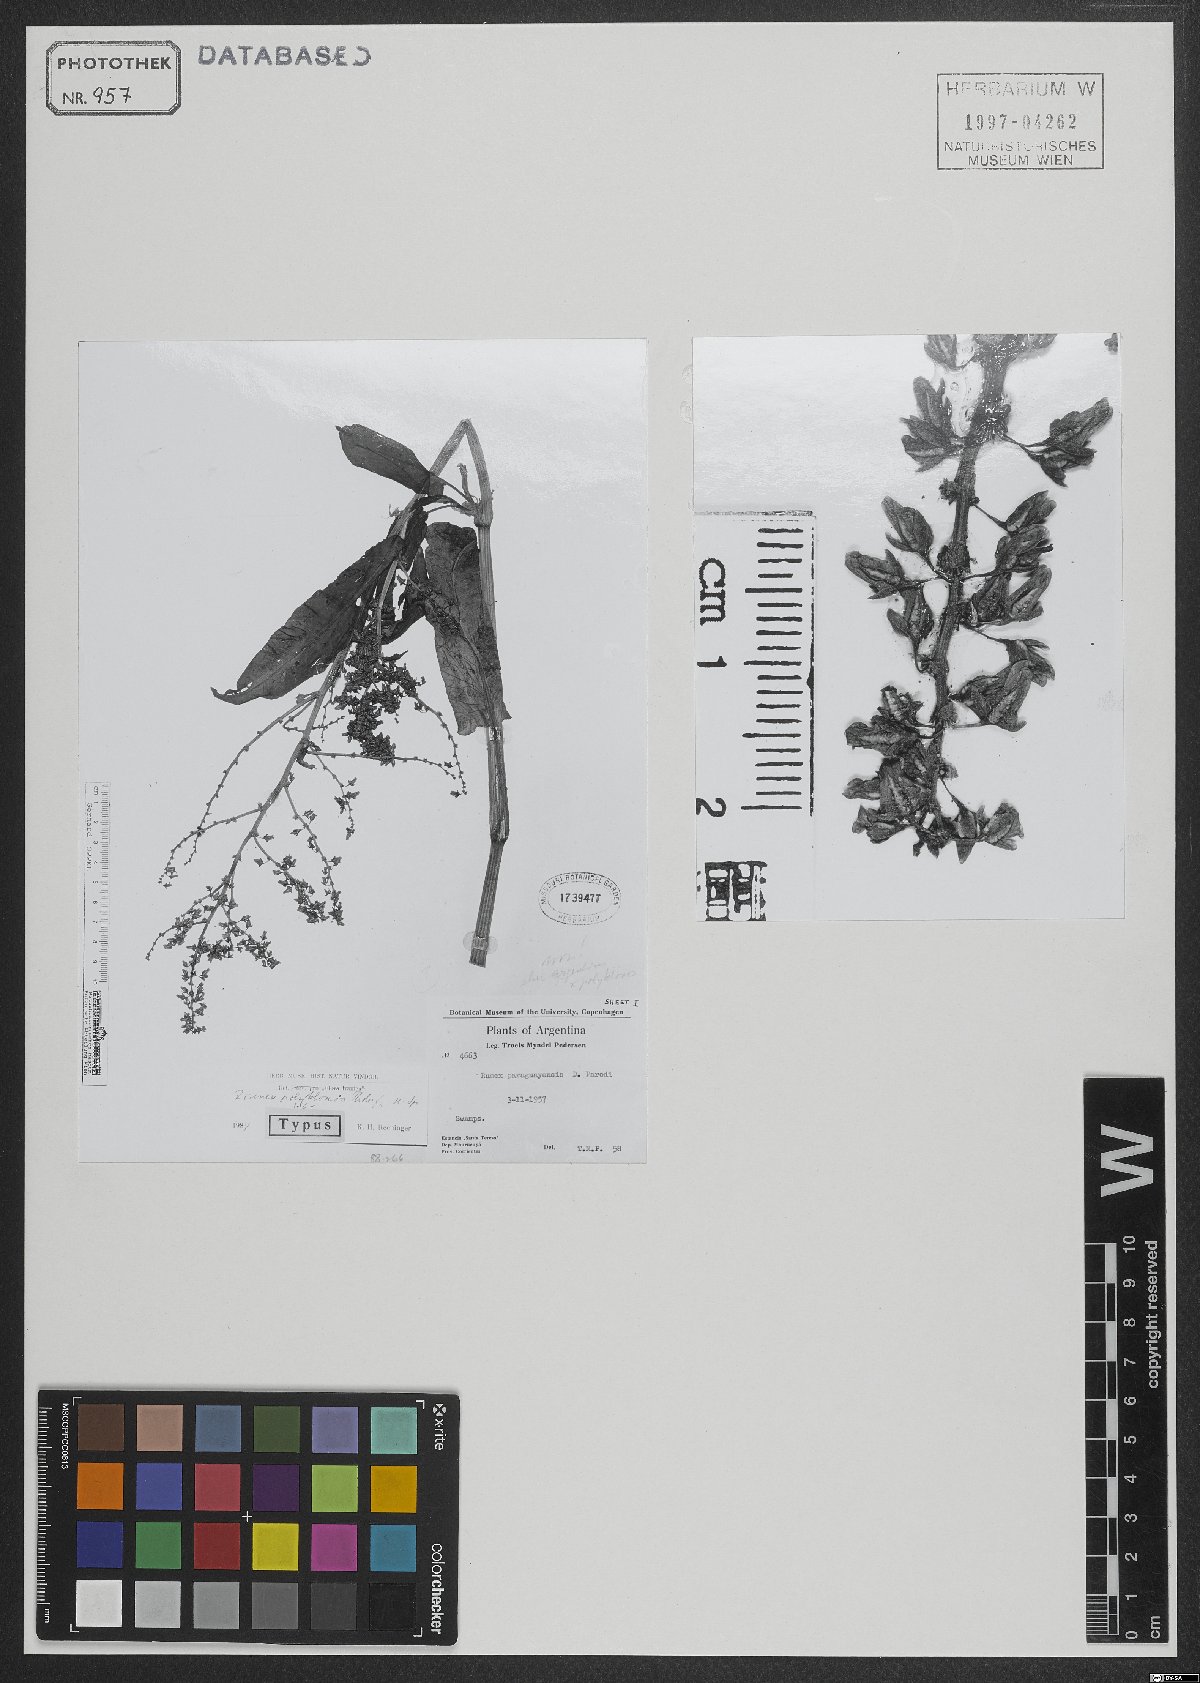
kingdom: Plantae
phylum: Tracheophyta
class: Magnoliopsida
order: Caryophyllales
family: Polygonaceae
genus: Rumex
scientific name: Rumex argentinus
